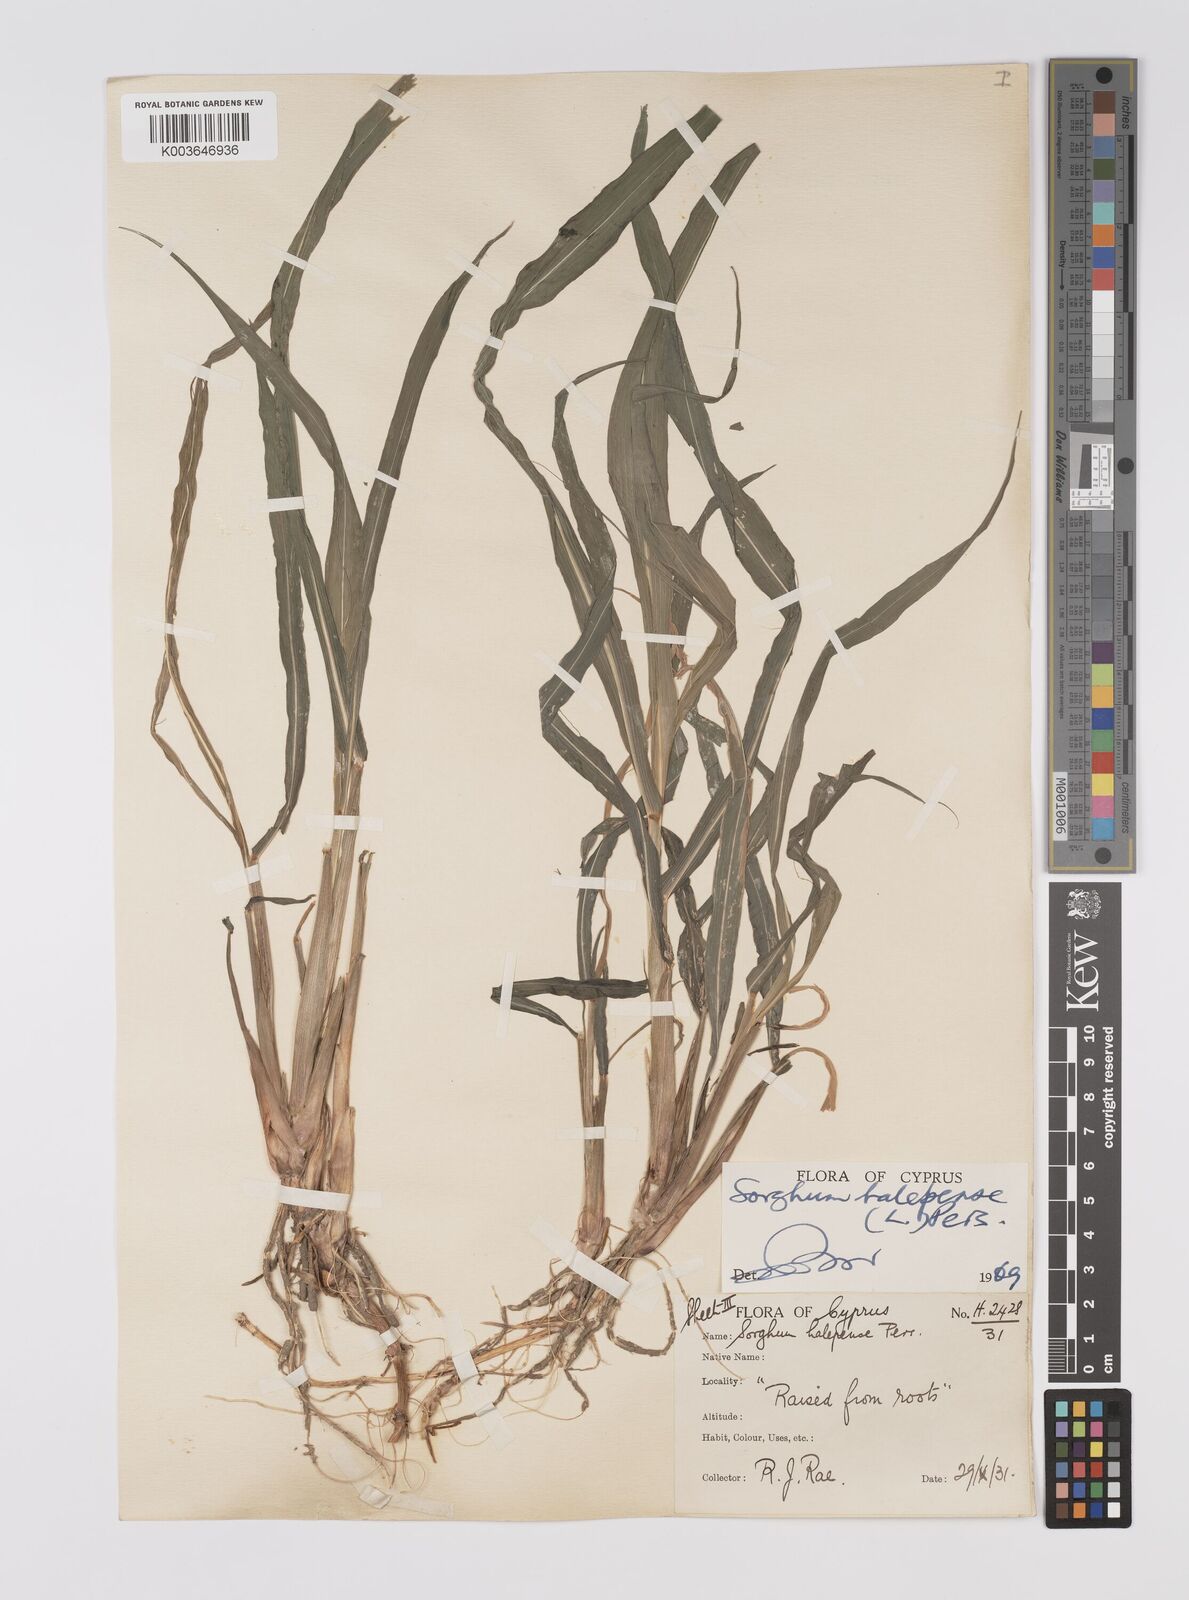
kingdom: Plantae
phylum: Tracheophyta
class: Liliopsida
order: Poales
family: Poaceae
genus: Sorghum
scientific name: Sorghum halepense
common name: Johnson-grass
